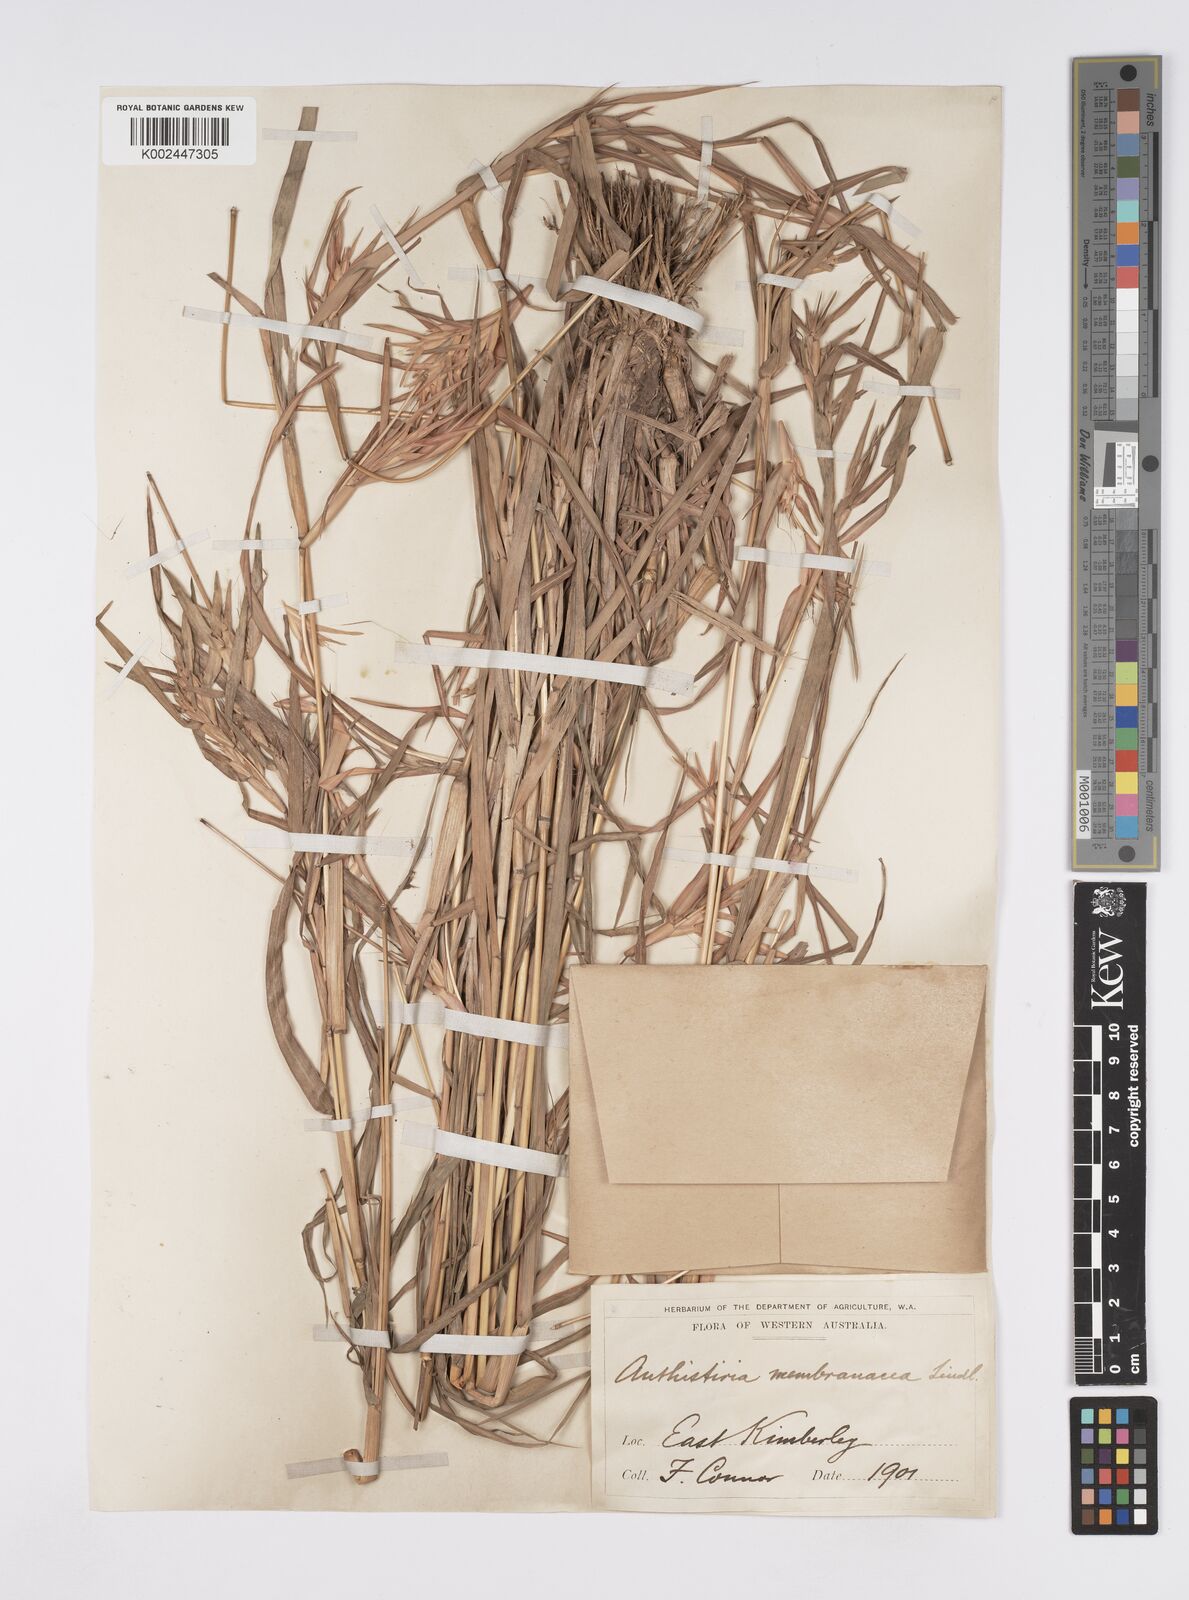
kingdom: Plantae
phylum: Tracheophyta
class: Liliopsida
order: Poales
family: Poaceae
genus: Iseilema
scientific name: Iseilema vaginiflorum
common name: Red flinders grass
